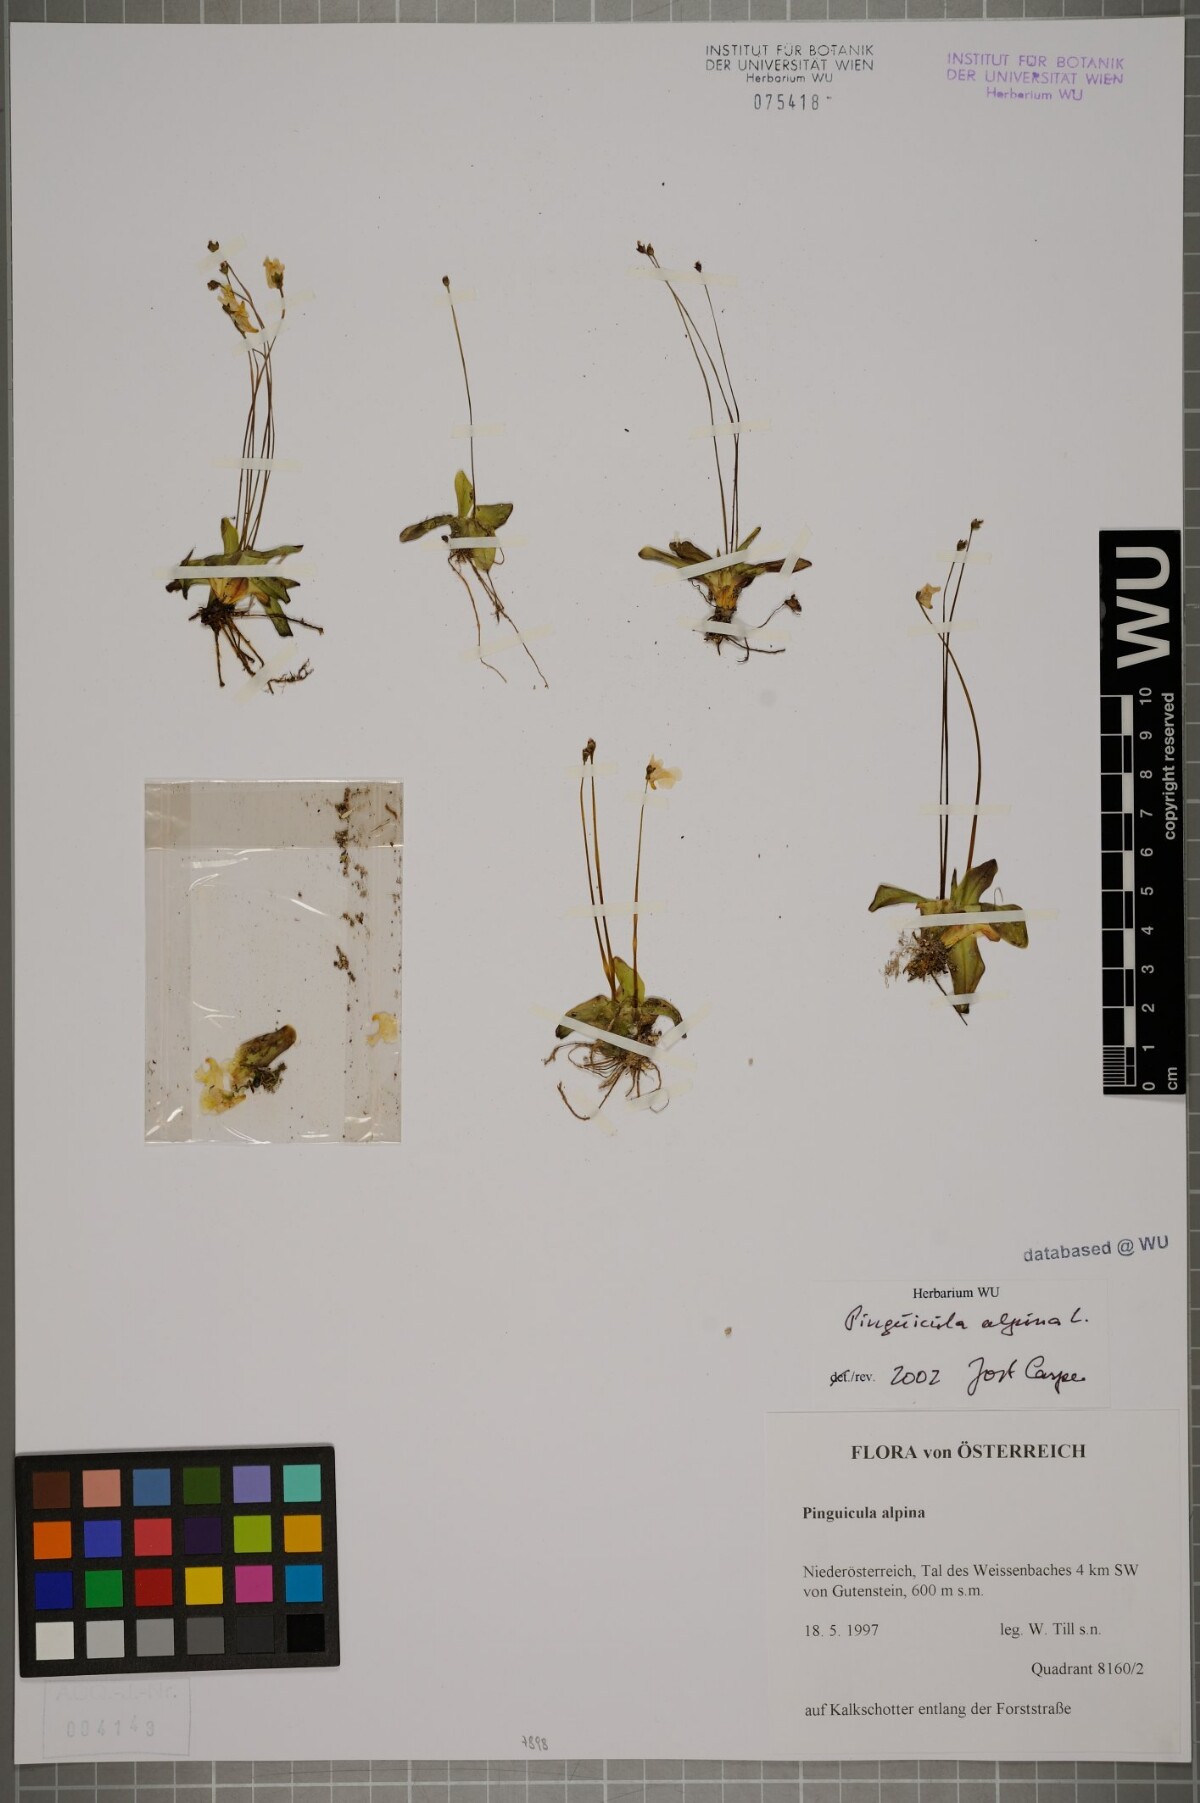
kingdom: Plantae
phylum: Tracheophyta
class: Magnoliopsida
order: Lamiales
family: Lentibulariaceae
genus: Pinguicula
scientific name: Pinguicula alpina
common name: Alpine butterwort
